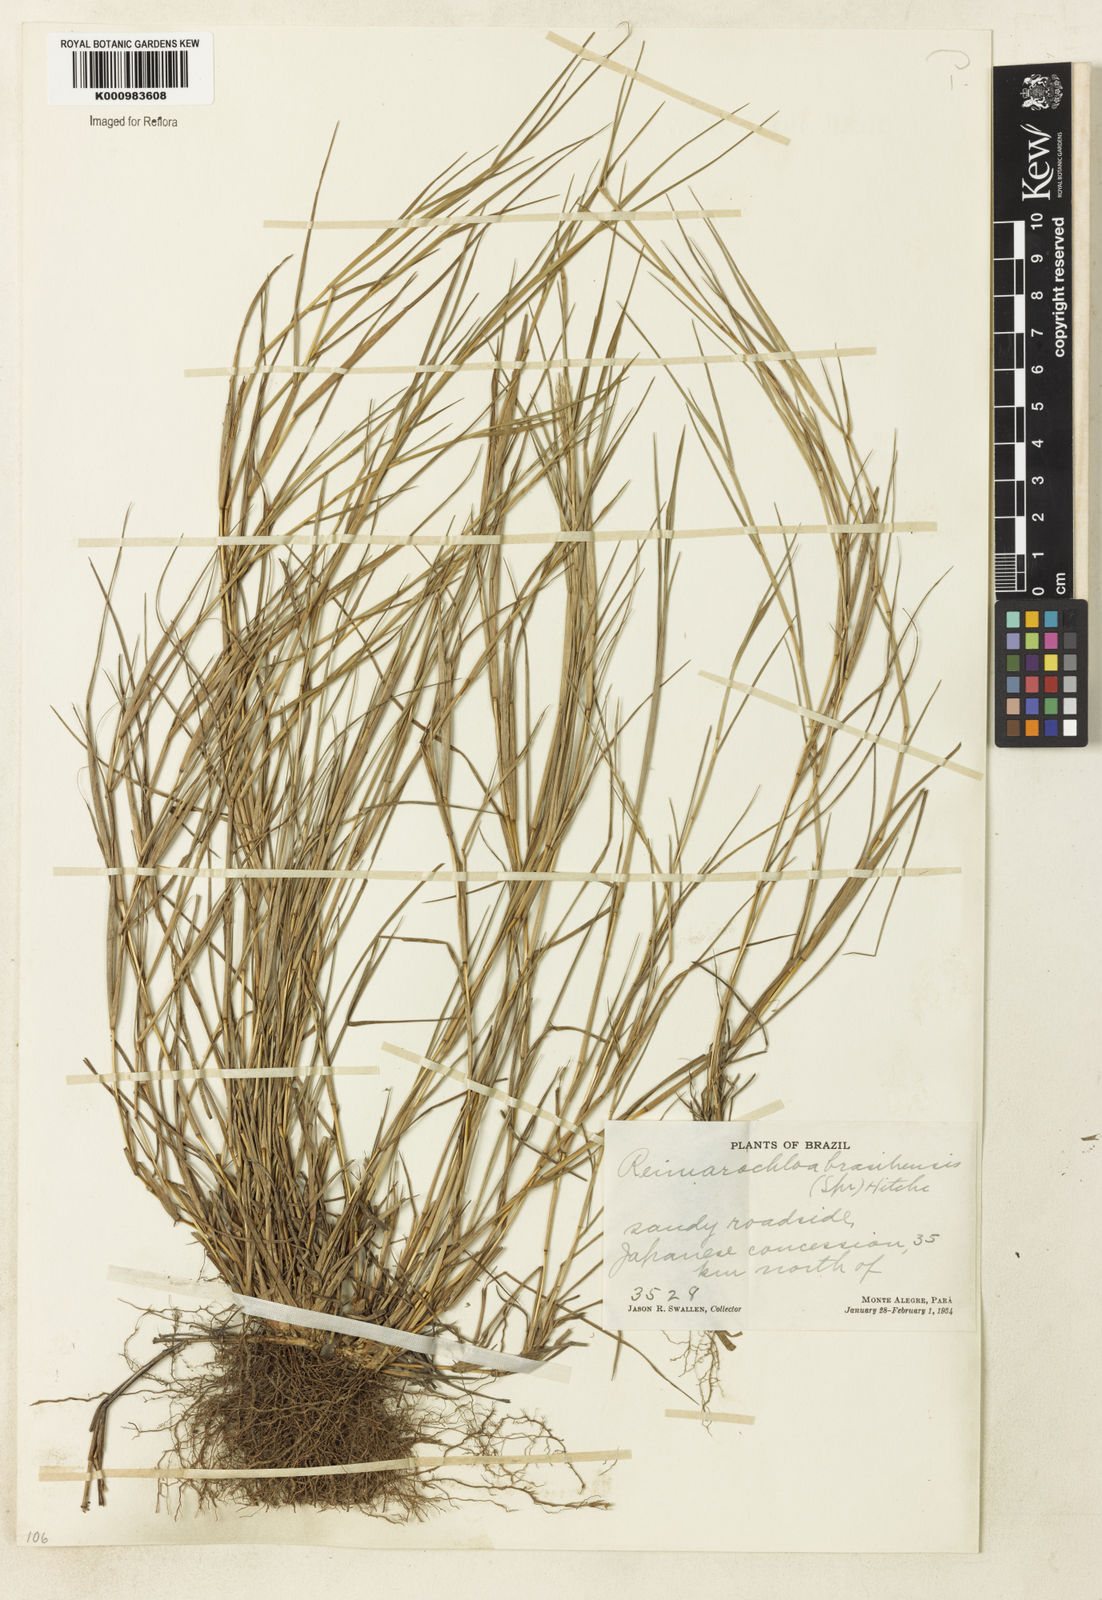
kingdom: Plantae
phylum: Tracheophyta
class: Liliopsida
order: Poales
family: Poaceae
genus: Paspalum
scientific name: Paspalum
